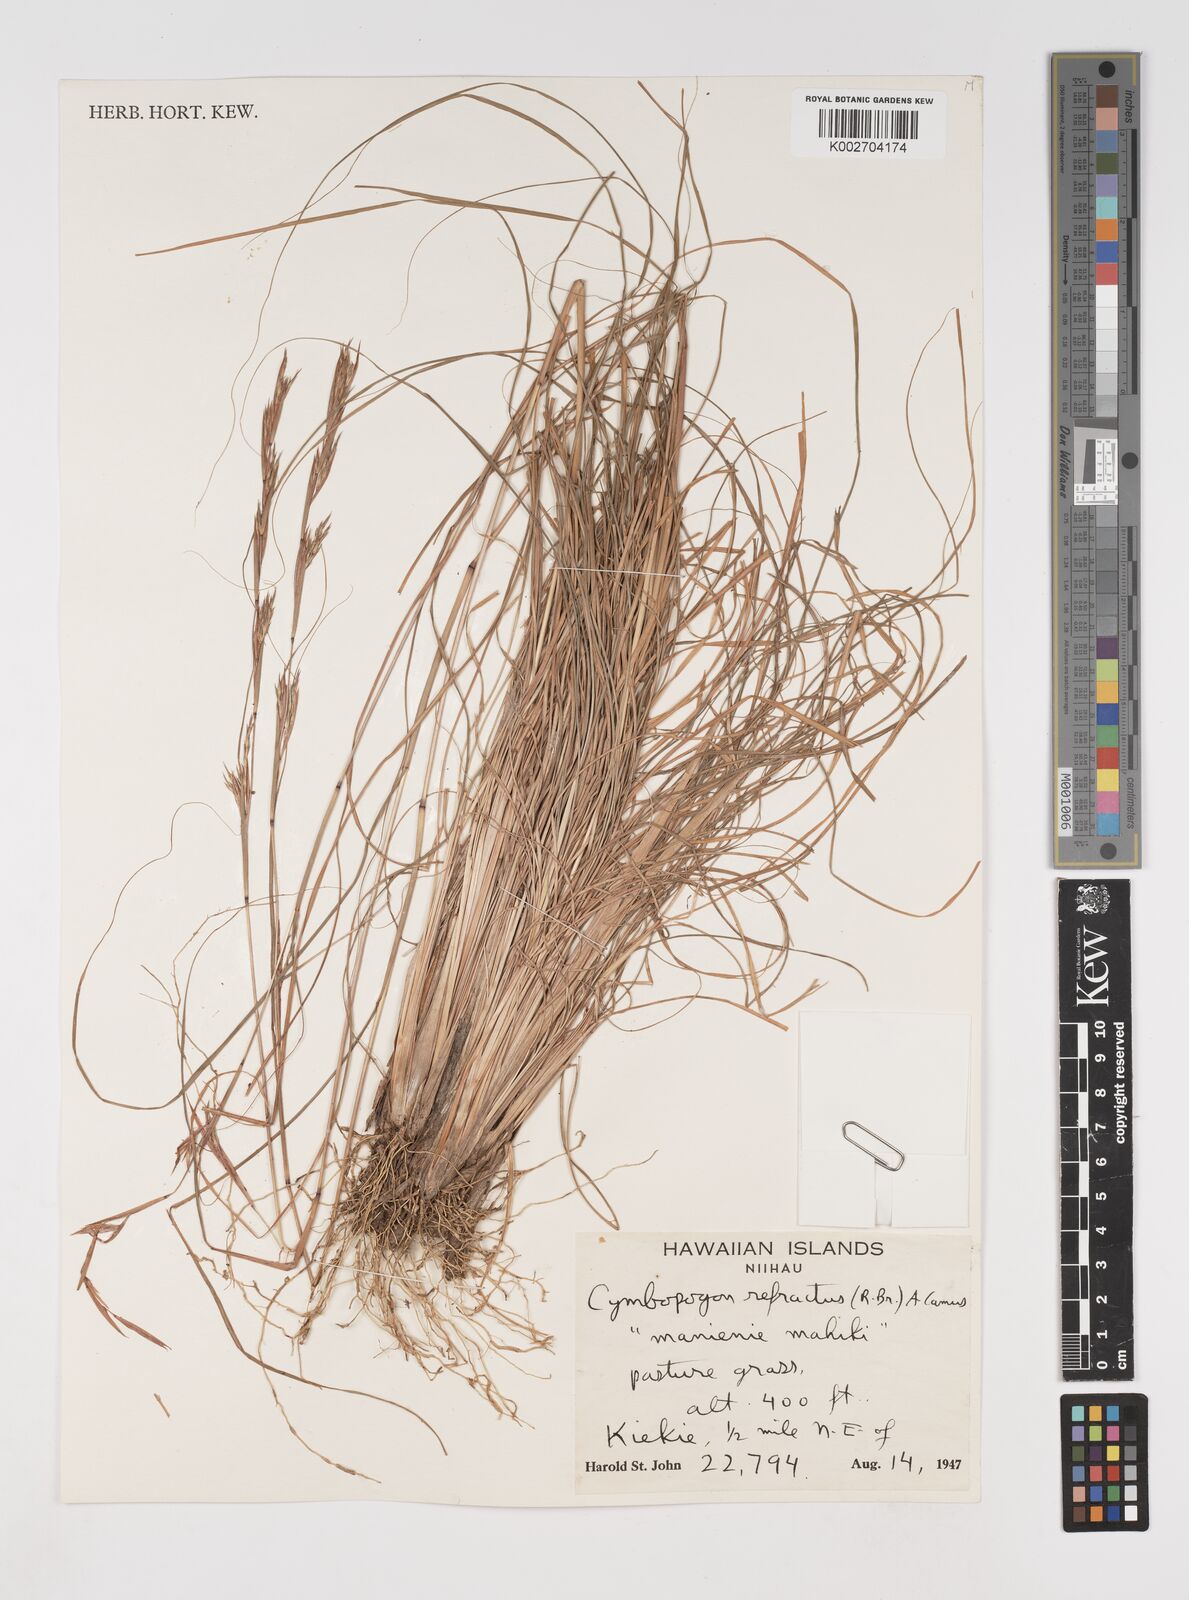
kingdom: Plantae
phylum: Tracheophyta
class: Liliopsida
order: Poales
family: Poaceae
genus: Cymbopogon
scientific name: Cymbopogon refractus
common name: Barbwire grass
